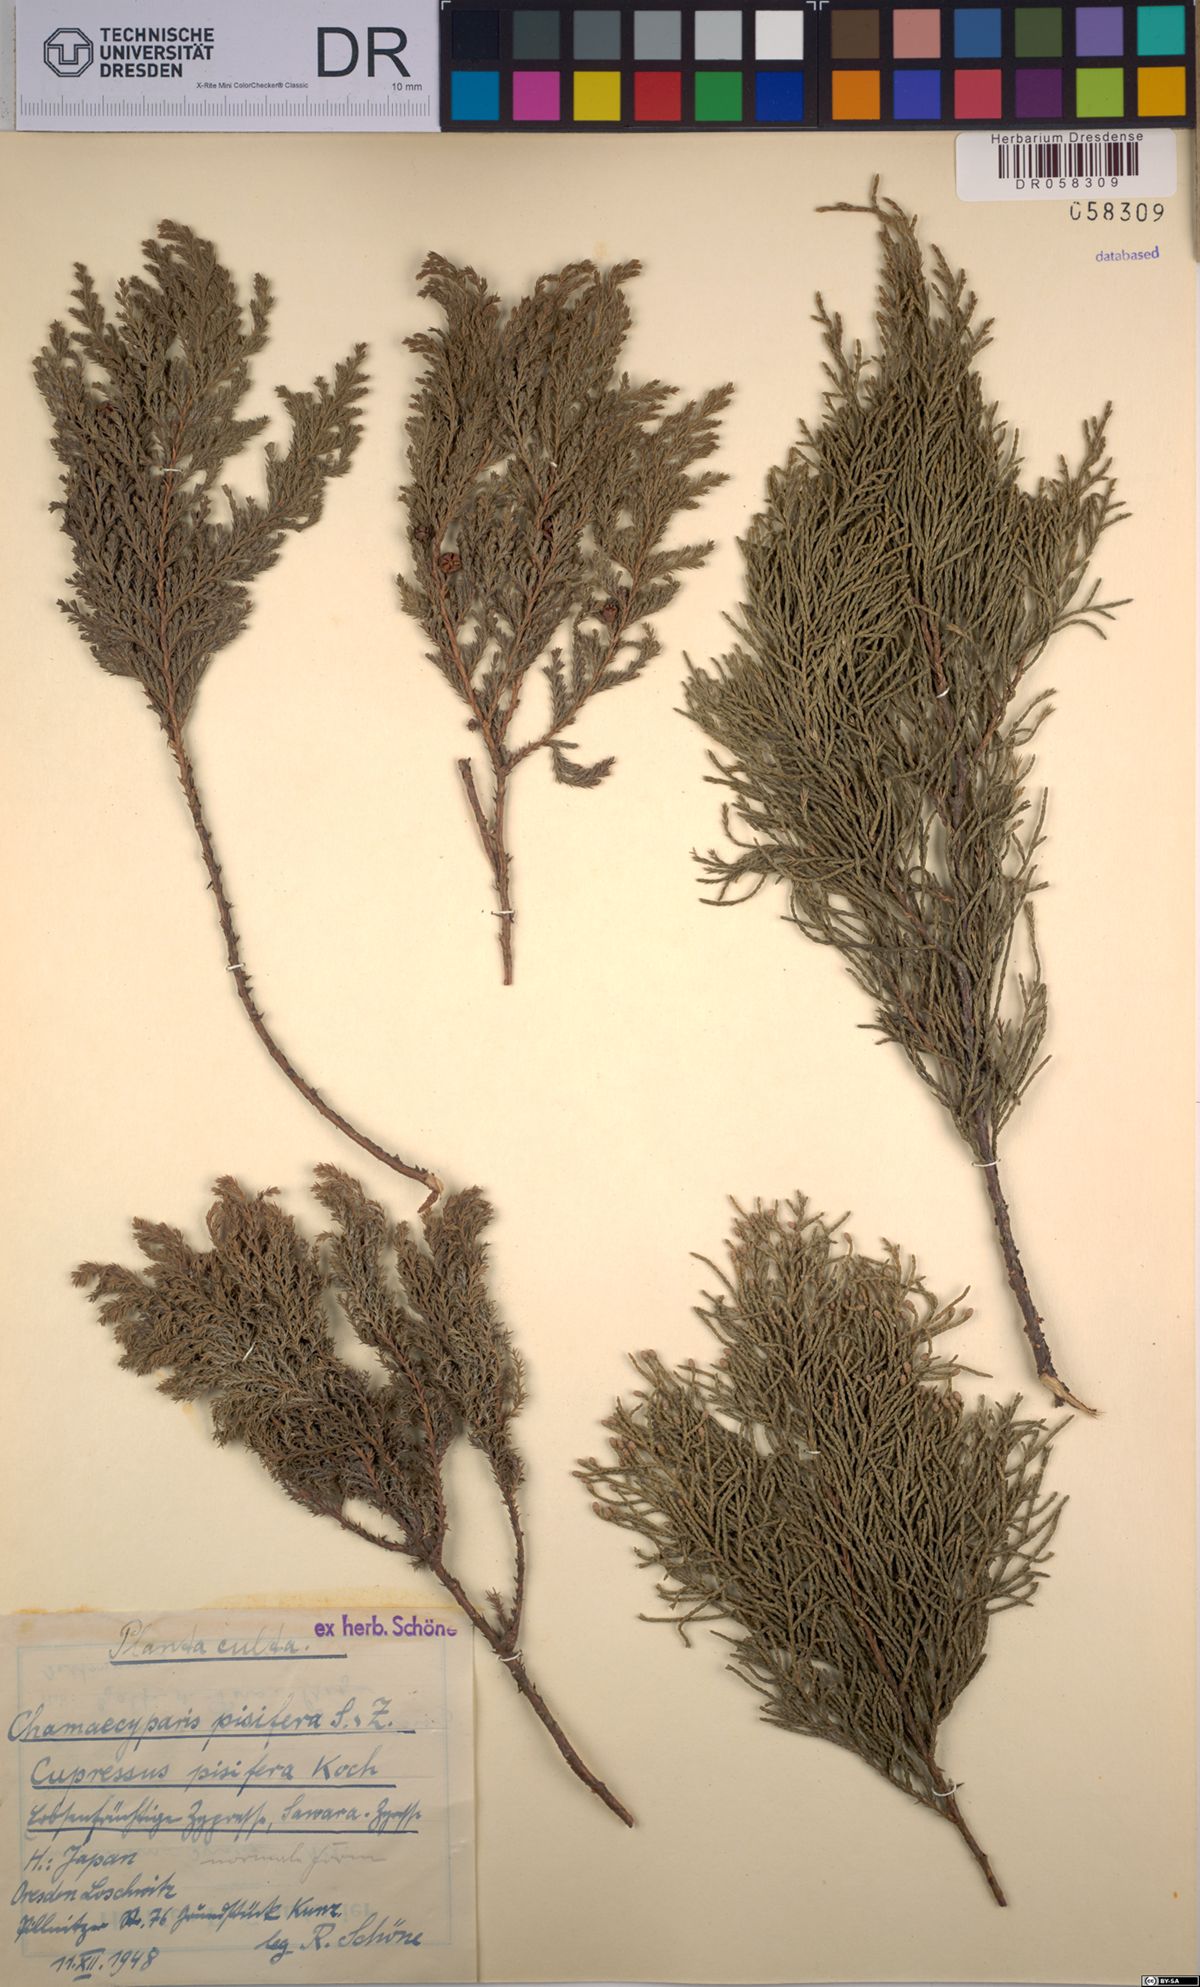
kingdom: Plantae
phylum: Tracheophyta
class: Pinopsida
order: Pinales
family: Cupressaceae
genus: Chamaecyparis
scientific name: Chamaecyparis pisifera
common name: Sawara cypress
